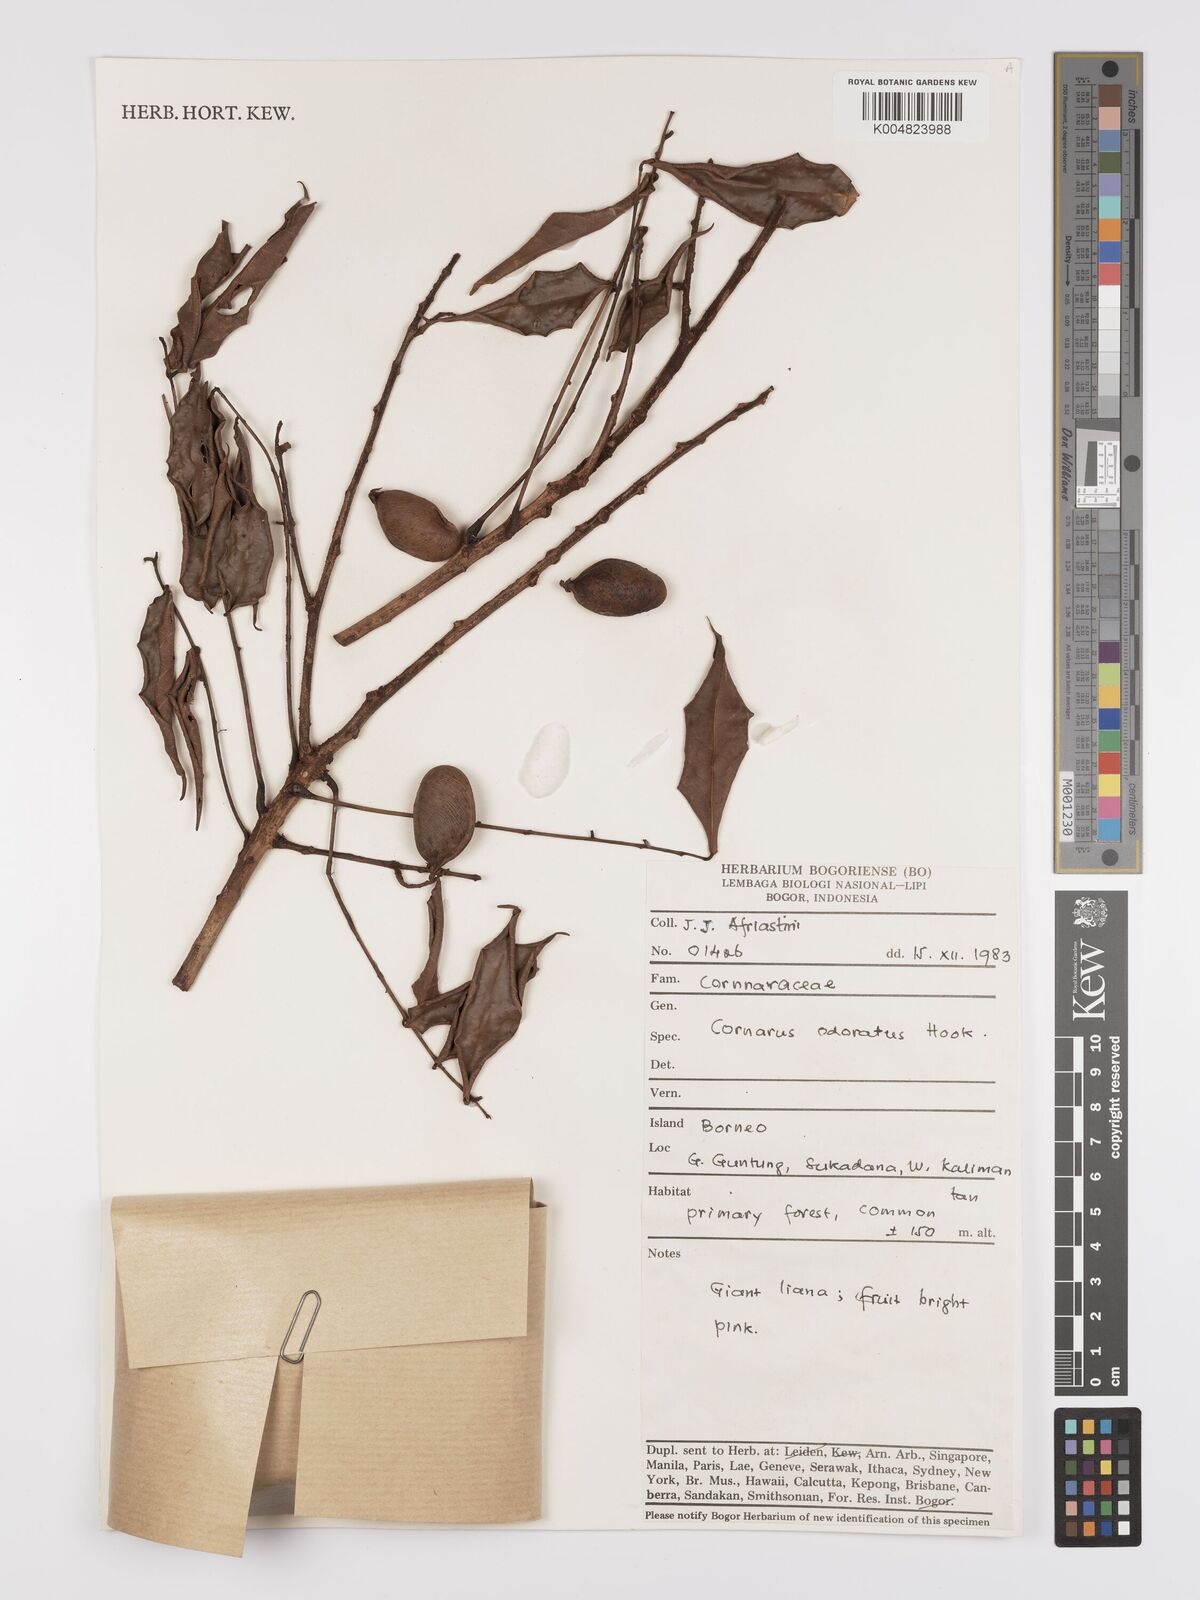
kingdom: Plantae
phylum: Tracheophyta
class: Magnoliopsida
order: Oxalidales
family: Connaraceae
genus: Connarus
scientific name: Connarus odoratus
